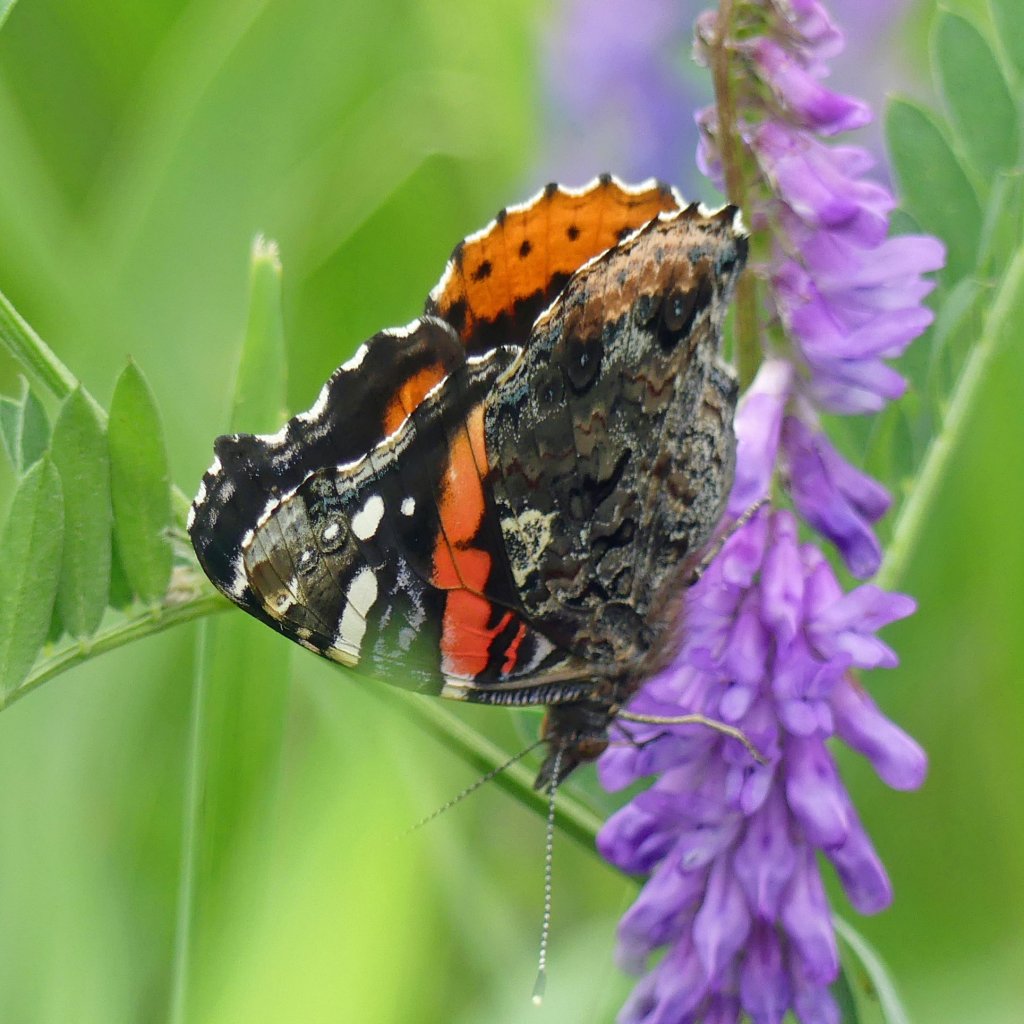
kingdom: Animalia
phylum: Arthropoda
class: Insecta
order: Lepidoptera
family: Nymphalidae
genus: Vanessa
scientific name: Vanessa atalanta
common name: Red Admiral
